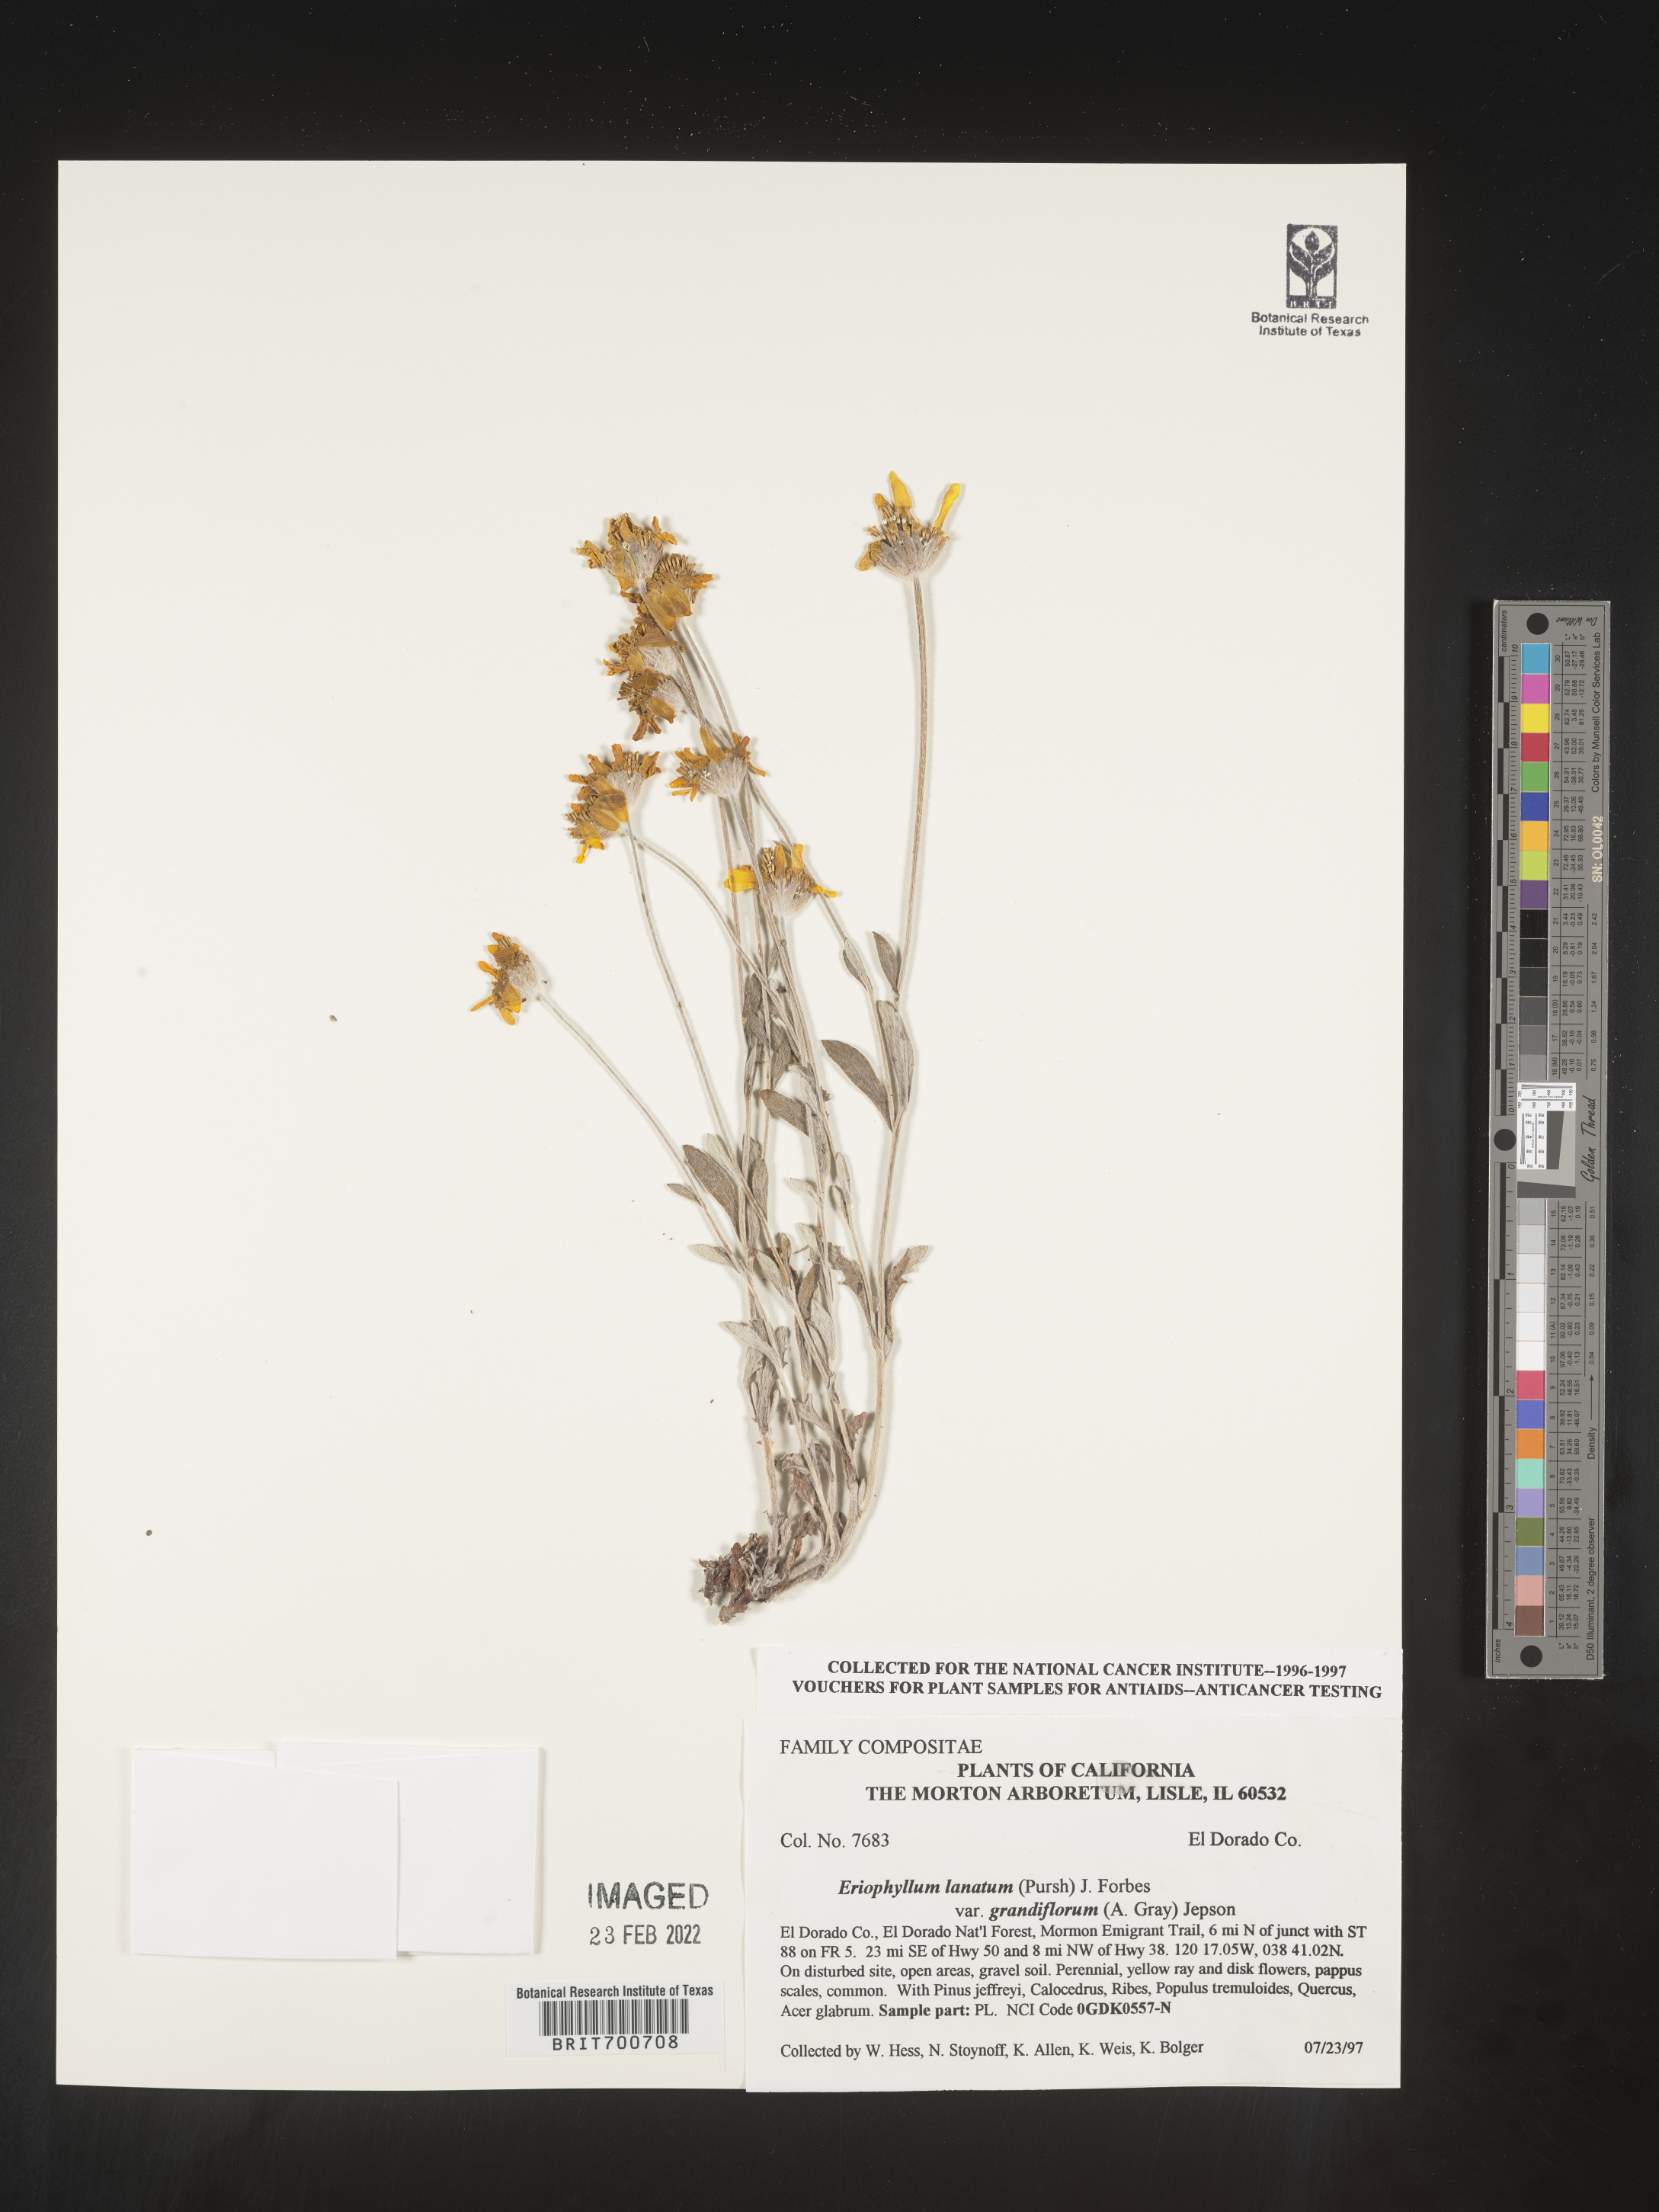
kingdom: Plantae
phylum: Tracheophyta
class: Magnoliopsida
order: Asterales
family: Asteraceae
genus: Eriophyllum
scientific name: Eriophyllum lanatum
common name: Common woolly-sunflower
